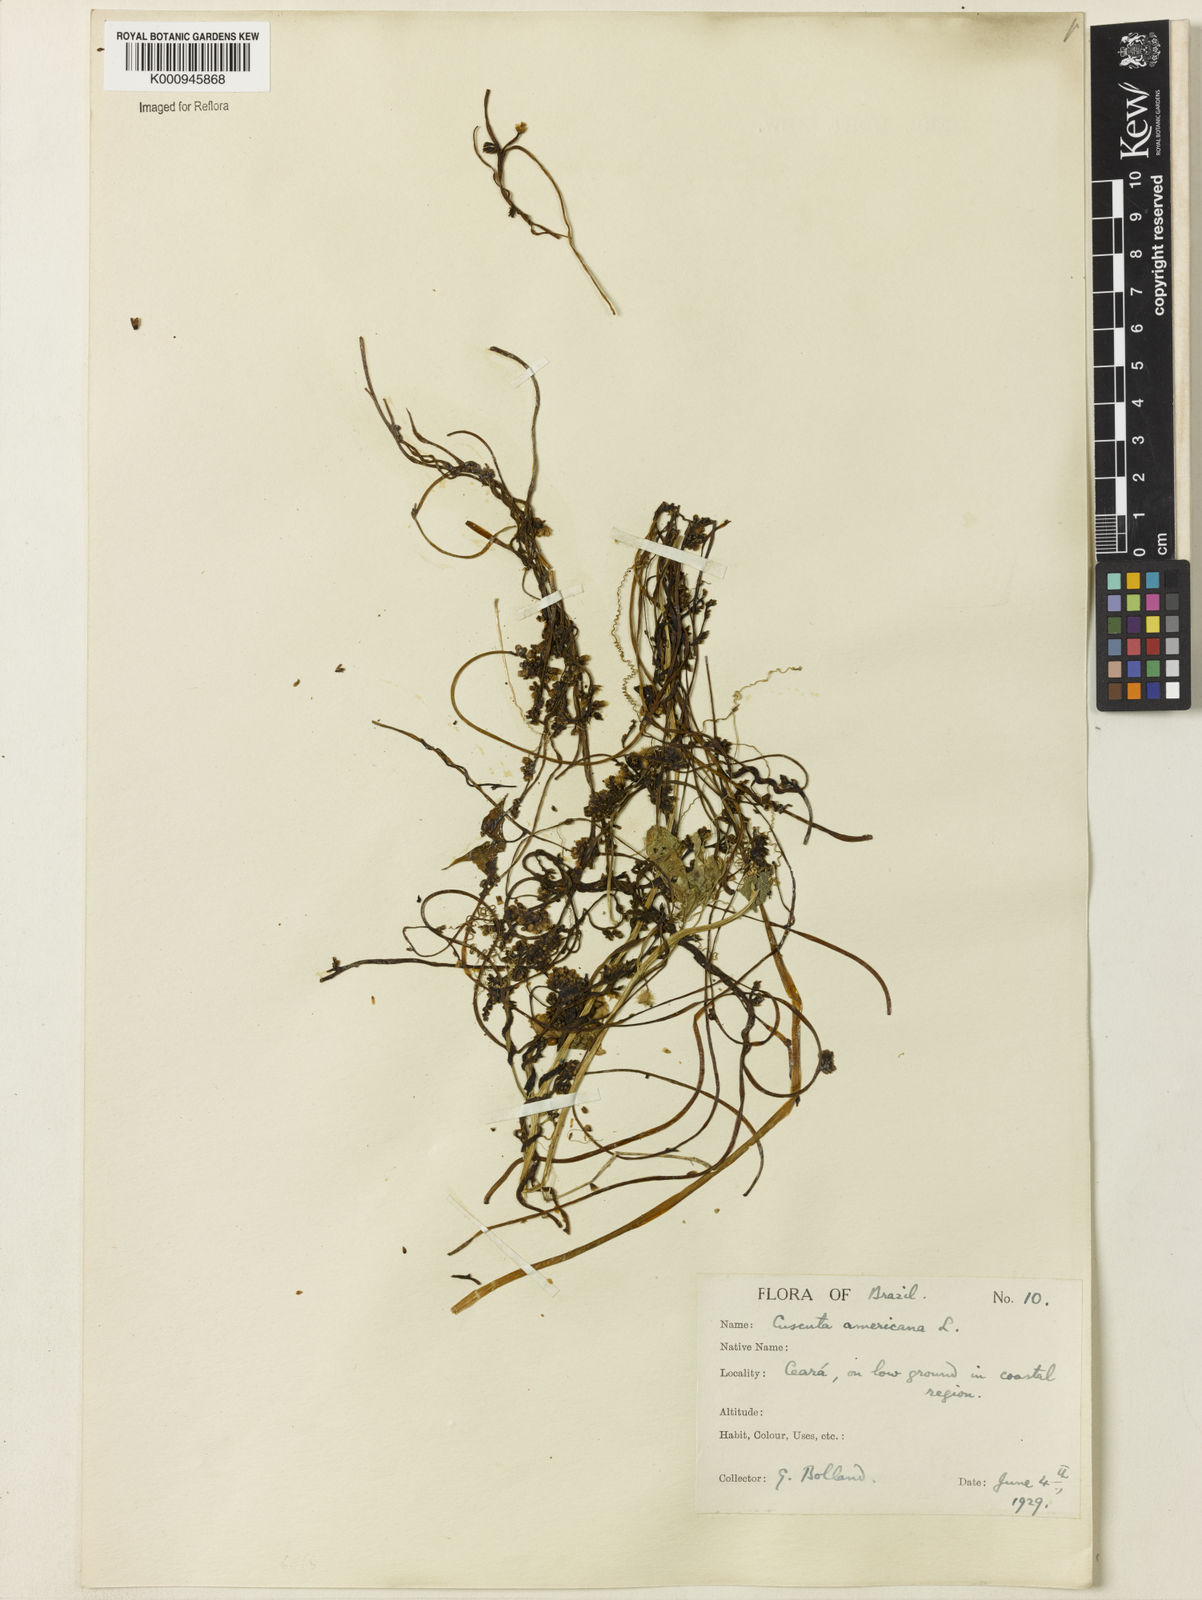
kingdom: Plantae
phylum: Tracheophyta
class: Magnoliopsida
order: Solanales
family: Convolvulaceae
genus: Cuscuta
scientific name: Cuscuta americana
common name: American dodder
